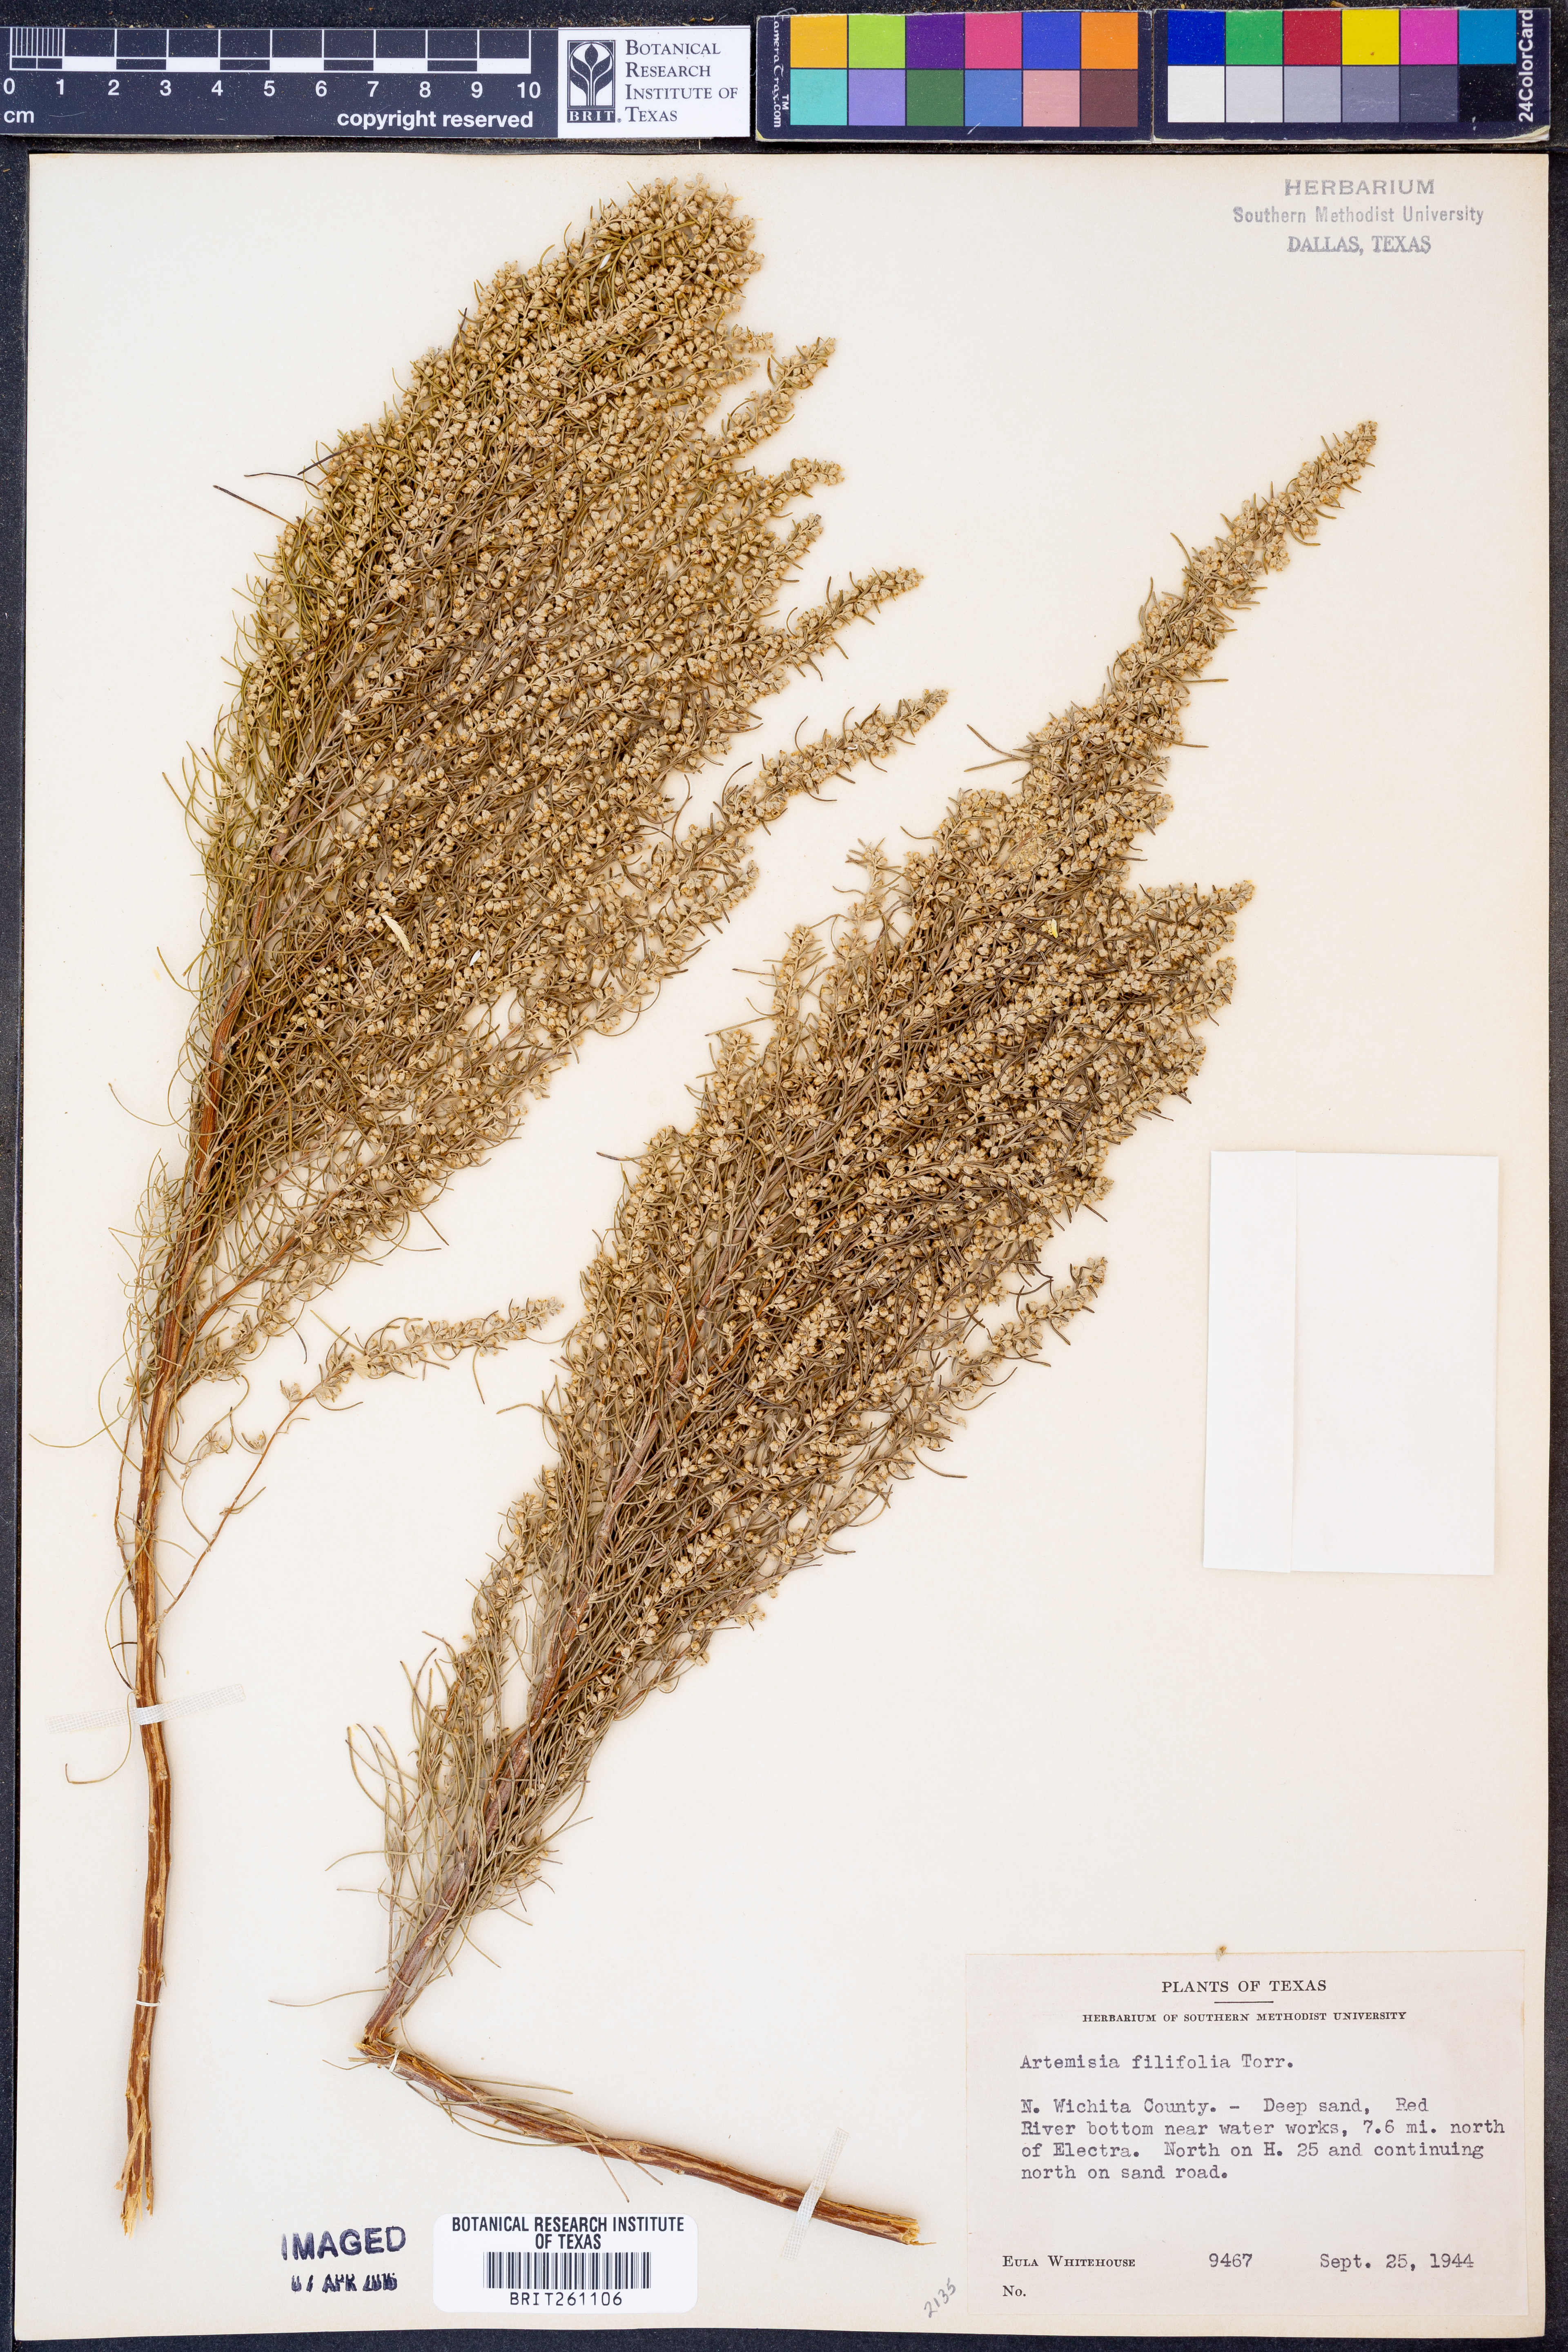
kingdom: Plantae
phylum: Tracheophyta
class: Magnoliopsida
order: Asterales
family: Asteraceae
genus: Artemisia
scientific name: Artemisia filifolia
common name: Sand-sage
